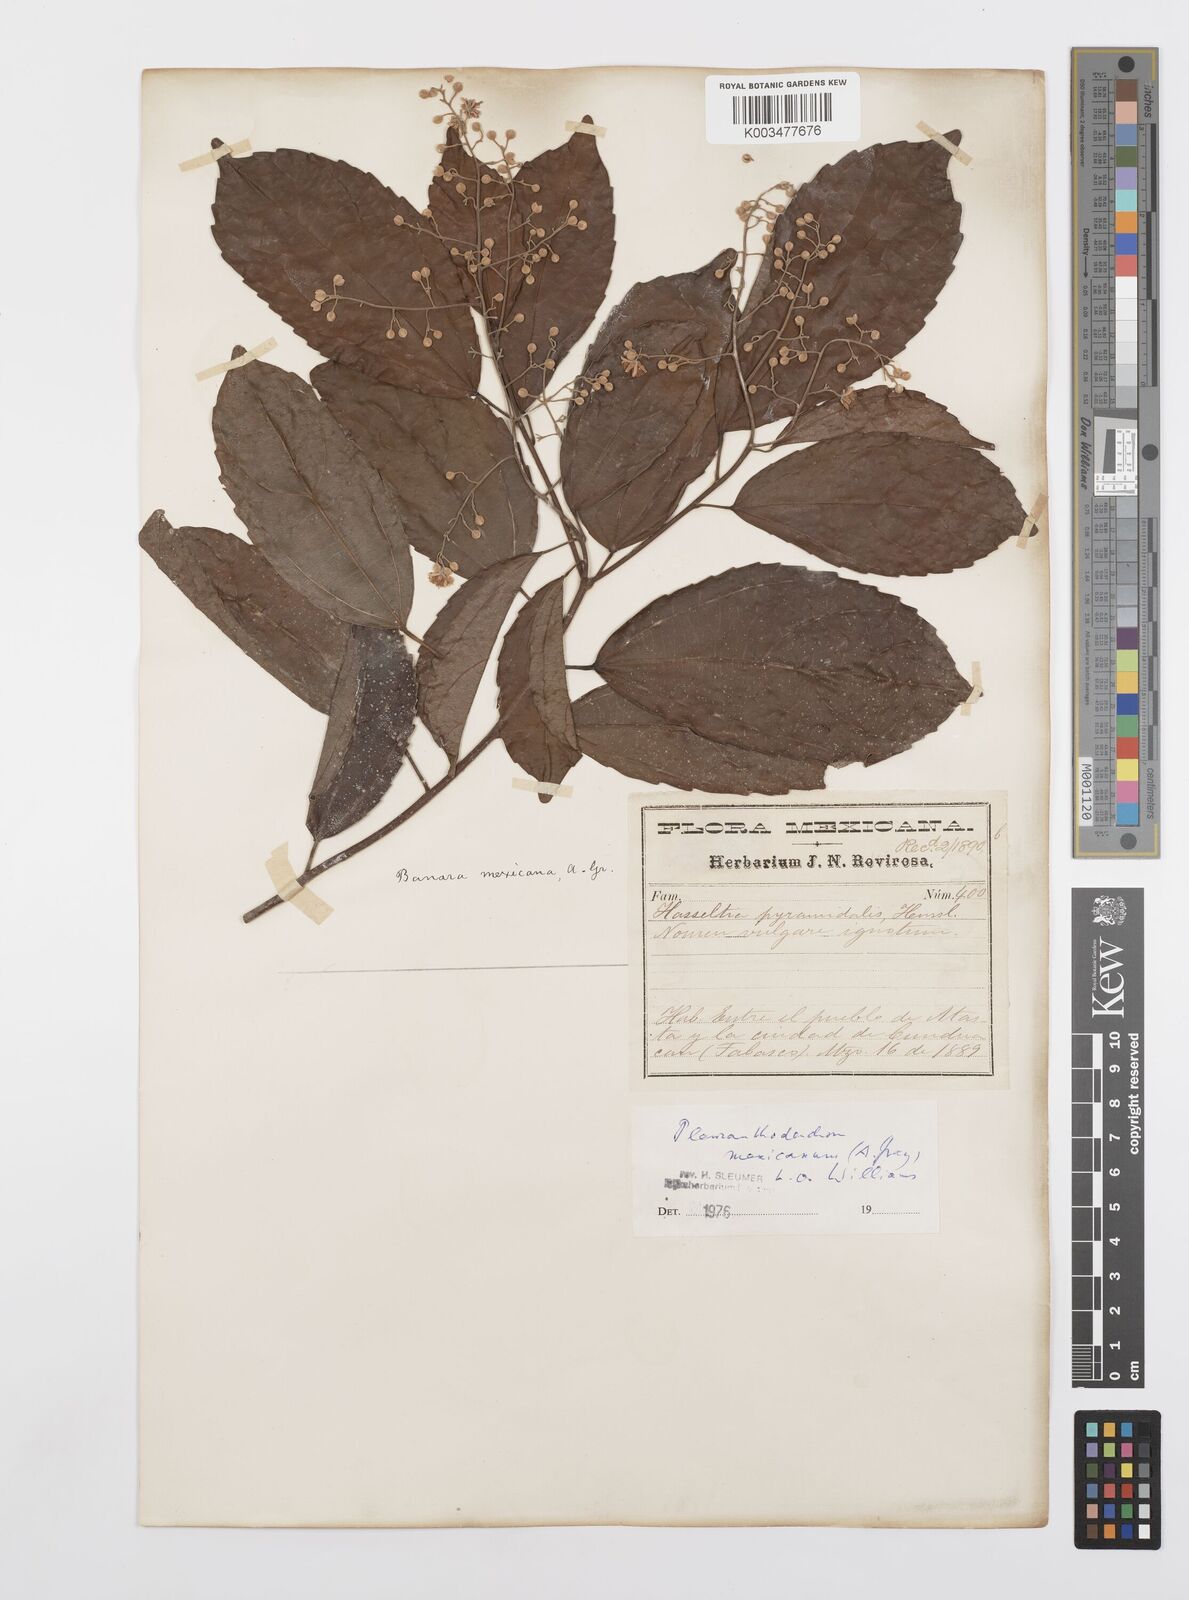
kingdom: Plantae
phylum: Tracheophyta
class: Magnoliopsida
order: Malpighiales
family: Salicaceae
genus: Pleuranthodendron
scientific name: Pleuranthodendron lindenii
